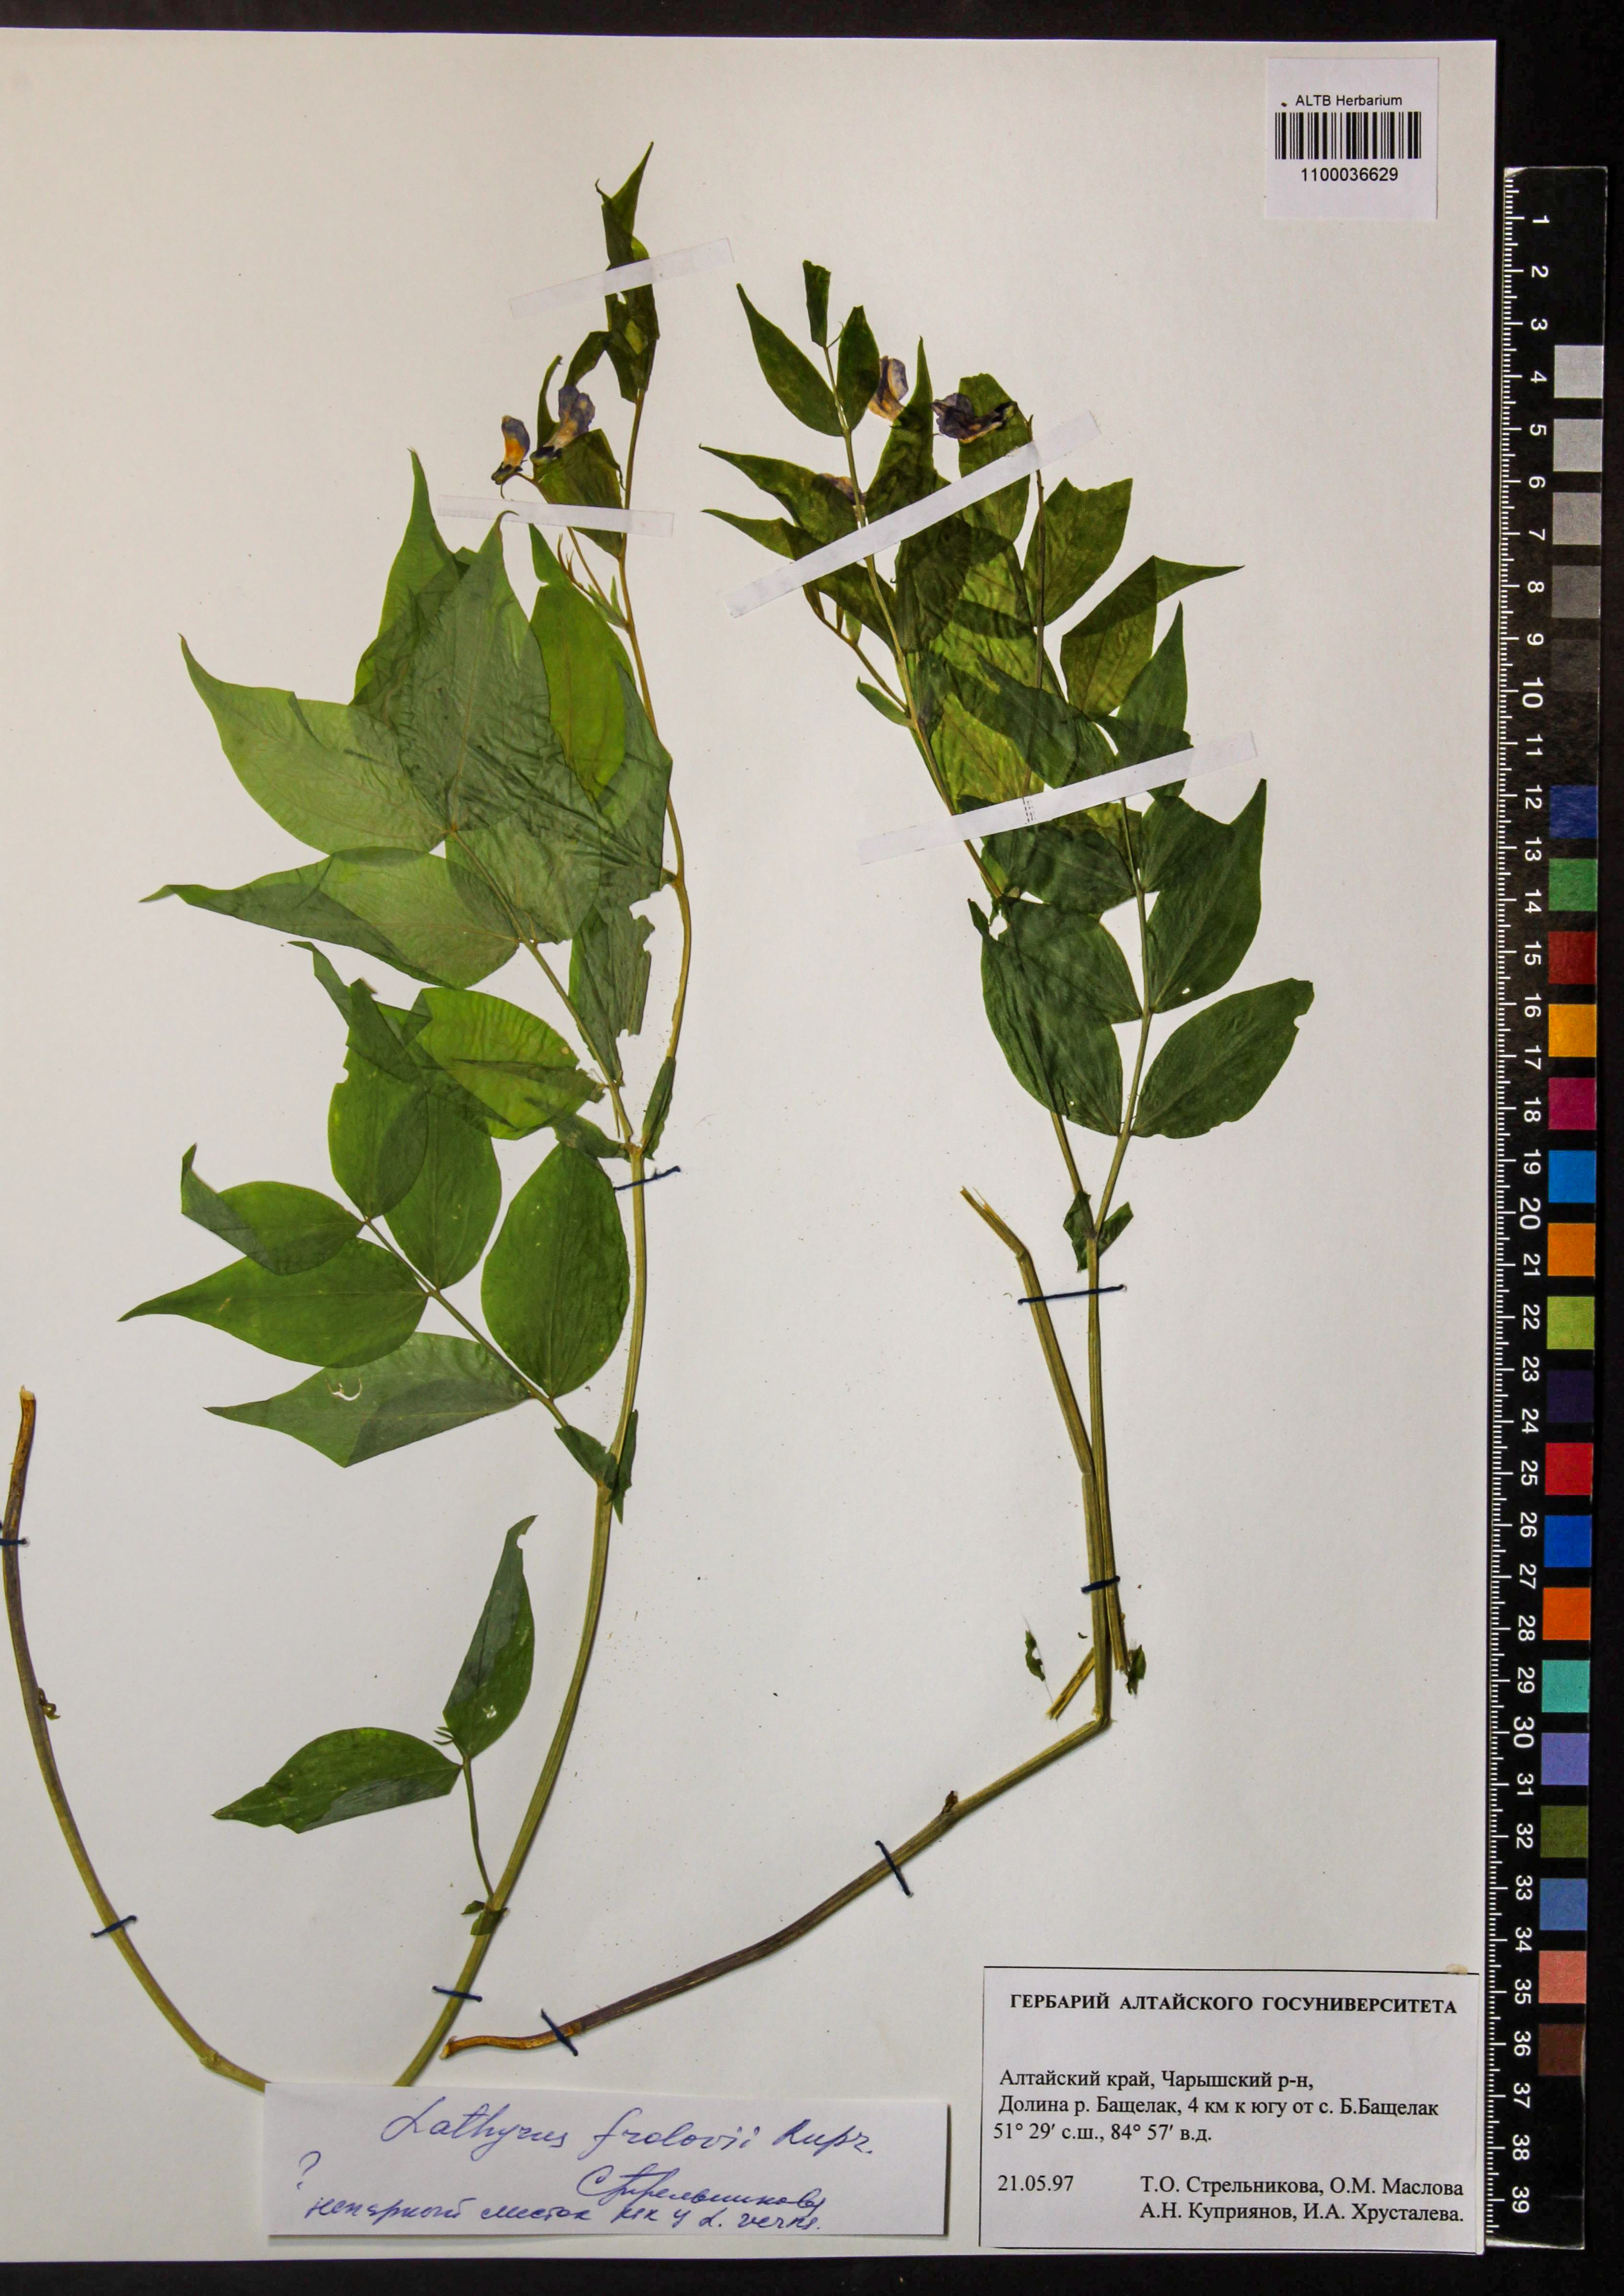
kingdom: Plantae
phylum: Tracheophyta
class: Magnoliopsida
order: Fabales
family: Fabaceae
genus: Lathyrus
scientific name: Lathyrus frolovii
